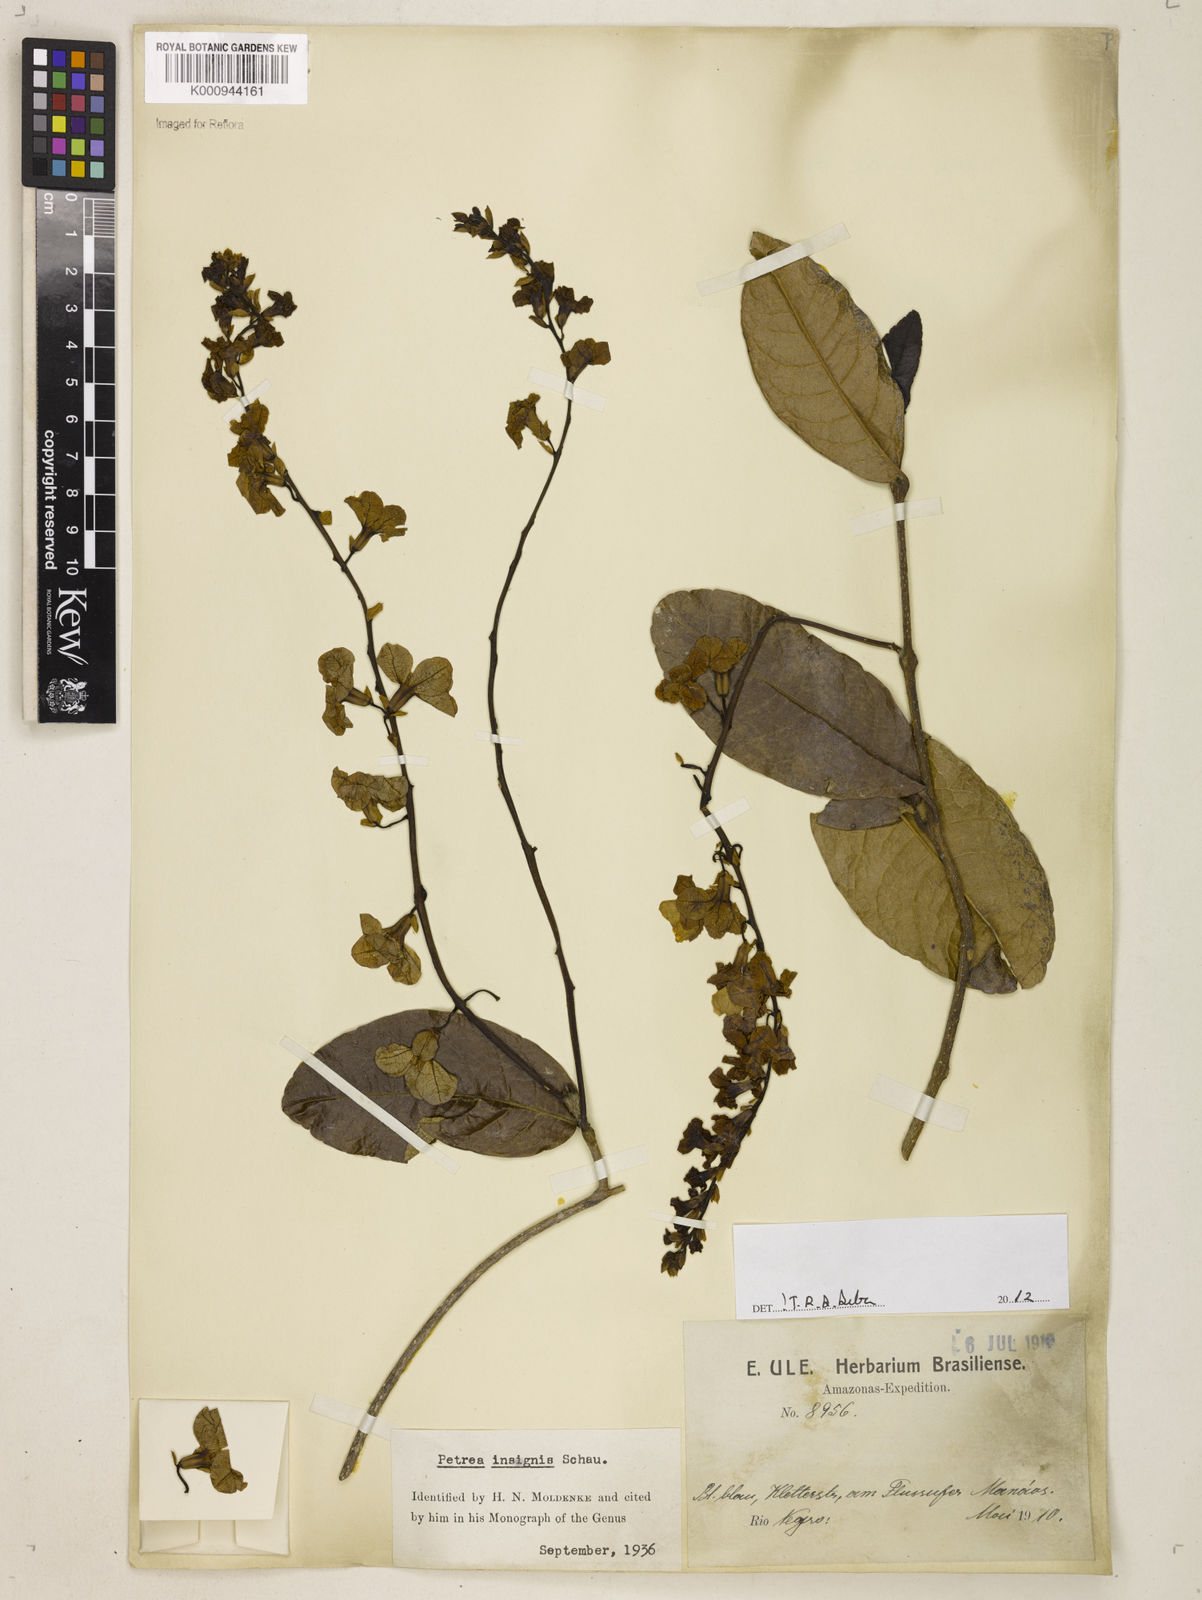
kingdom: Plantae
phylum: Tracheophyta
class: Magnoliopsida
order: Lamiales
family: Verbenaceae
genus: Petrea
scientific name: Petrea insignis
